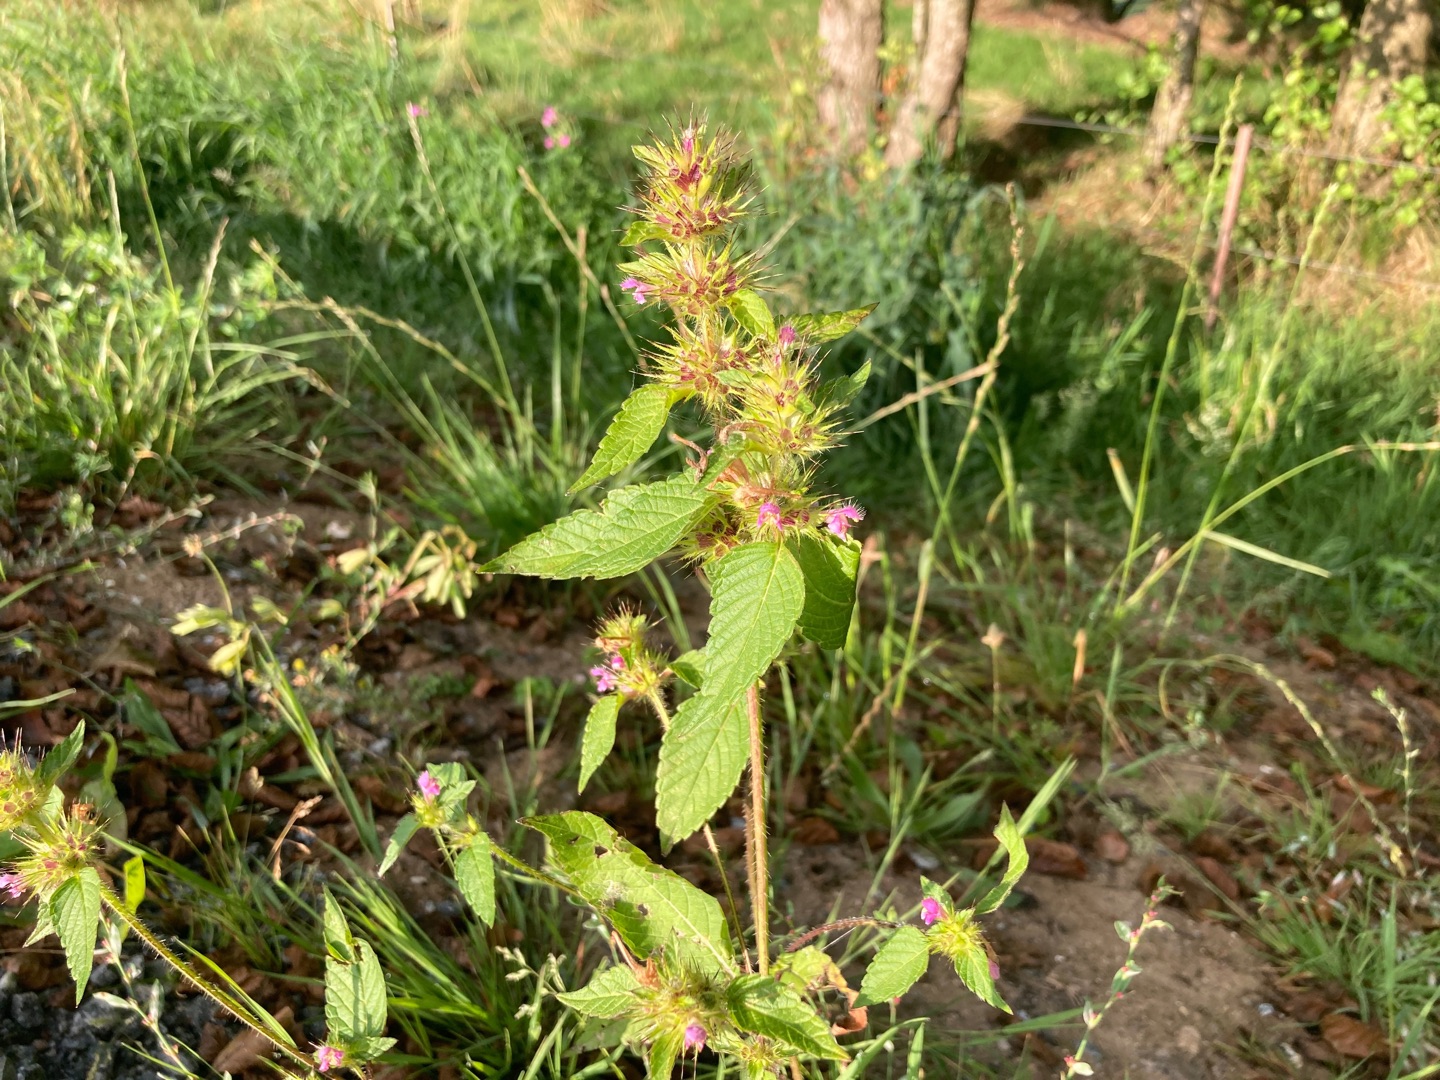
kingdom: Plantae
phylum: Tracheophyta
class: Magnoliopsida
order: Lamiales
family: Lamiaceae
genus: Galeopsis
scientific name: Galeopsis bifida
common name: Skov-hanekro
